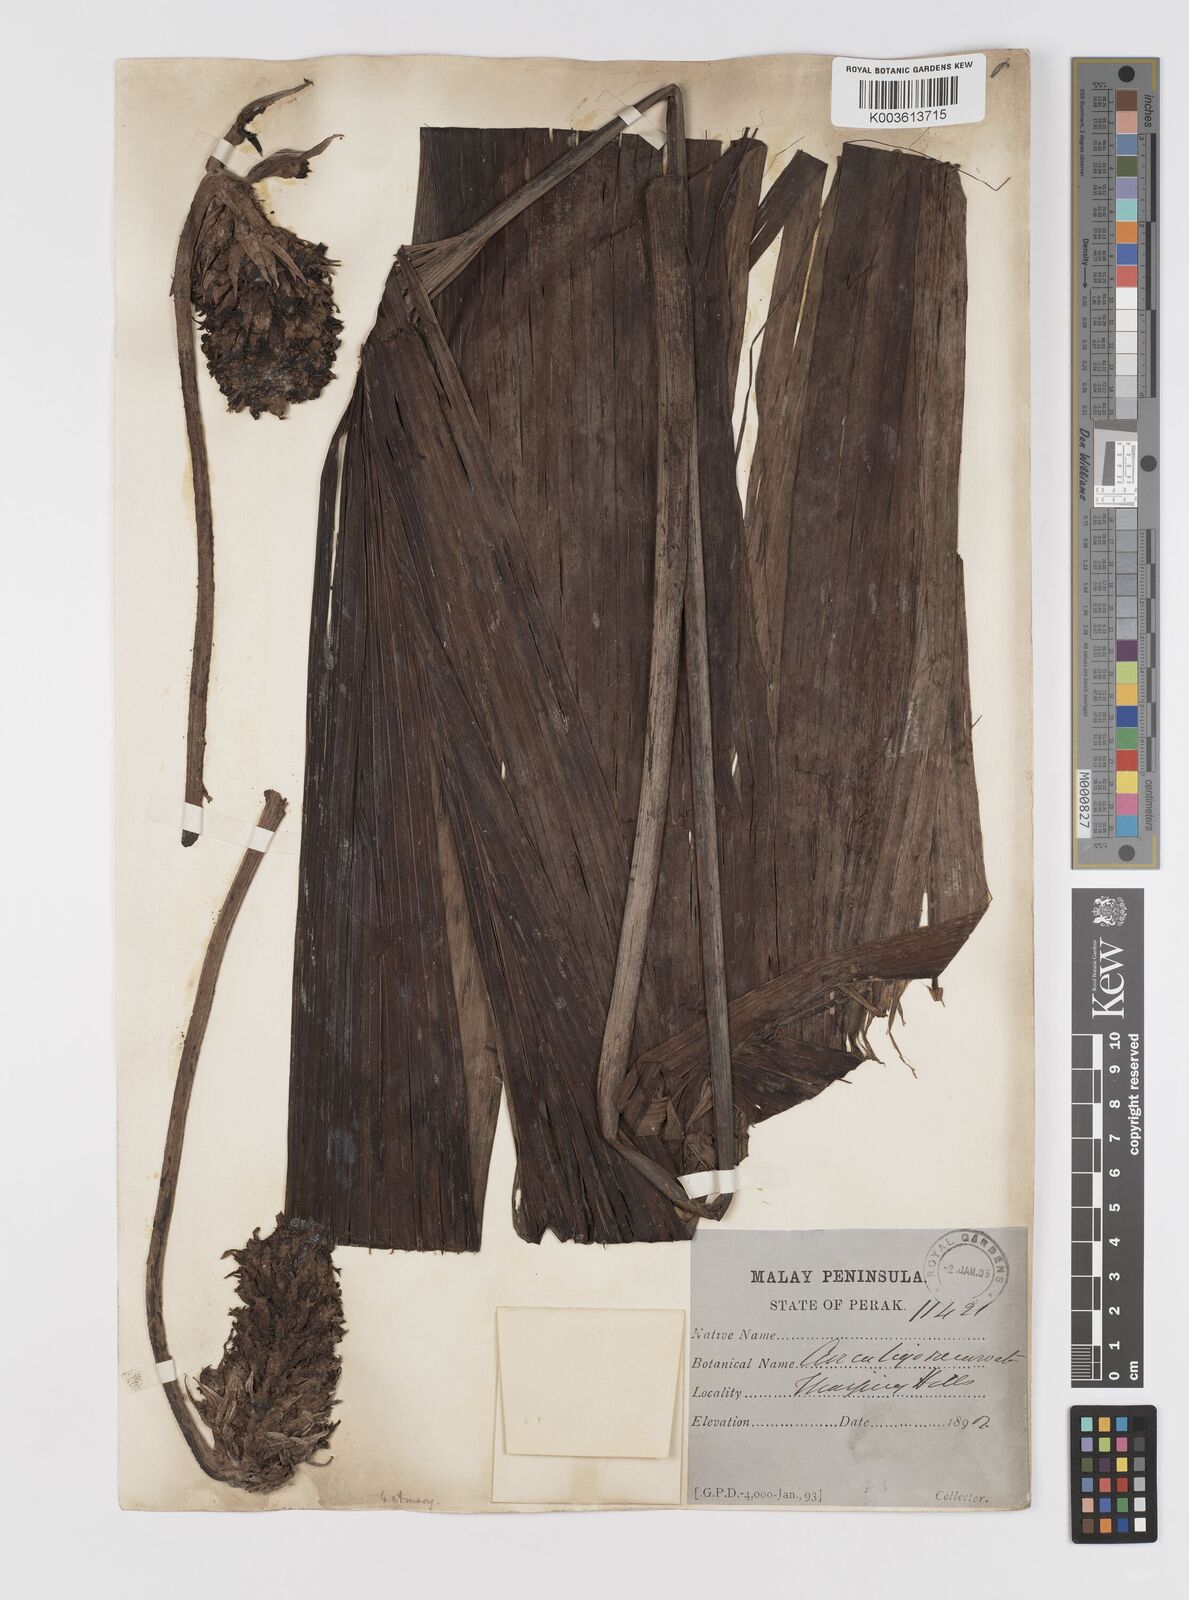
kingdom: Plantae
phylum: Tracheophyta
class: Liliopsida
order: Asparagales
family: Hypoxidaceae
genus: Curculigo
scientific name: Curculigo capitulata
